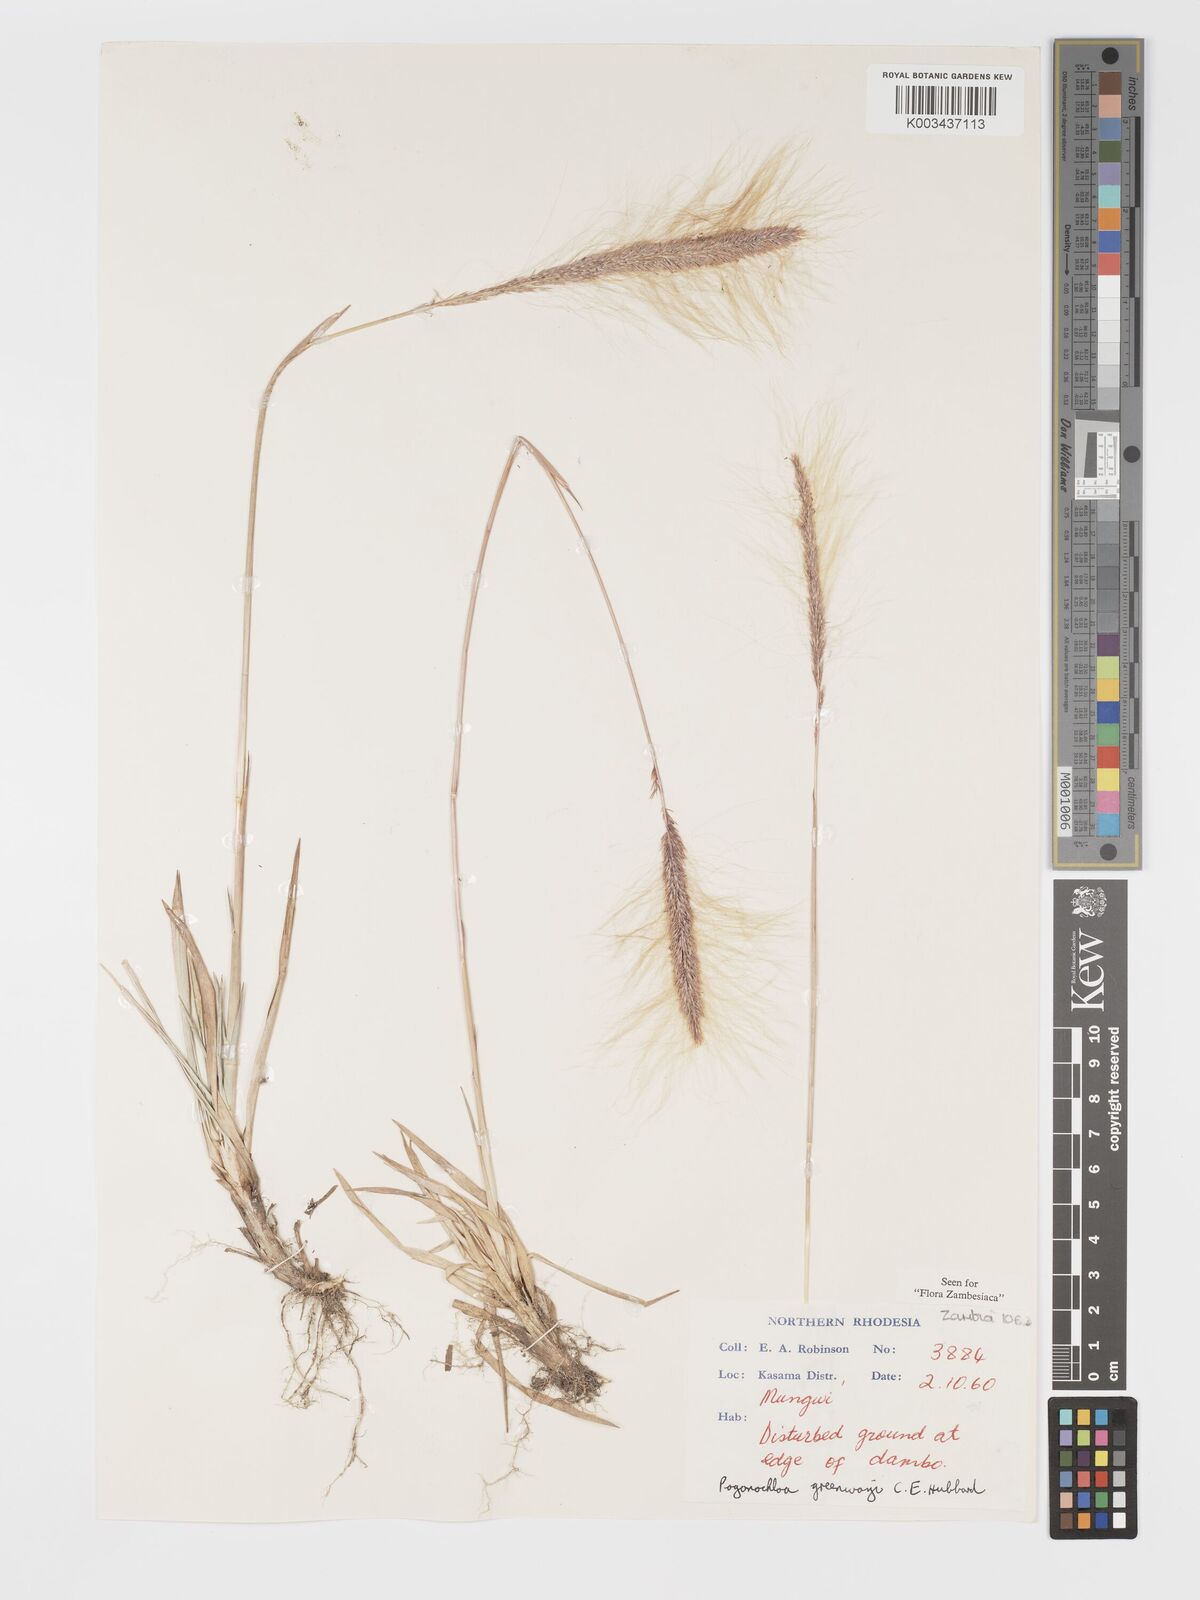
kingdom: Plantae
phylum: Tracheophyta
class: Liliopsida
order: Poales
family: Poaceae
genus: Pogonochloa
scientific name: Pogonochloa greenwayi
